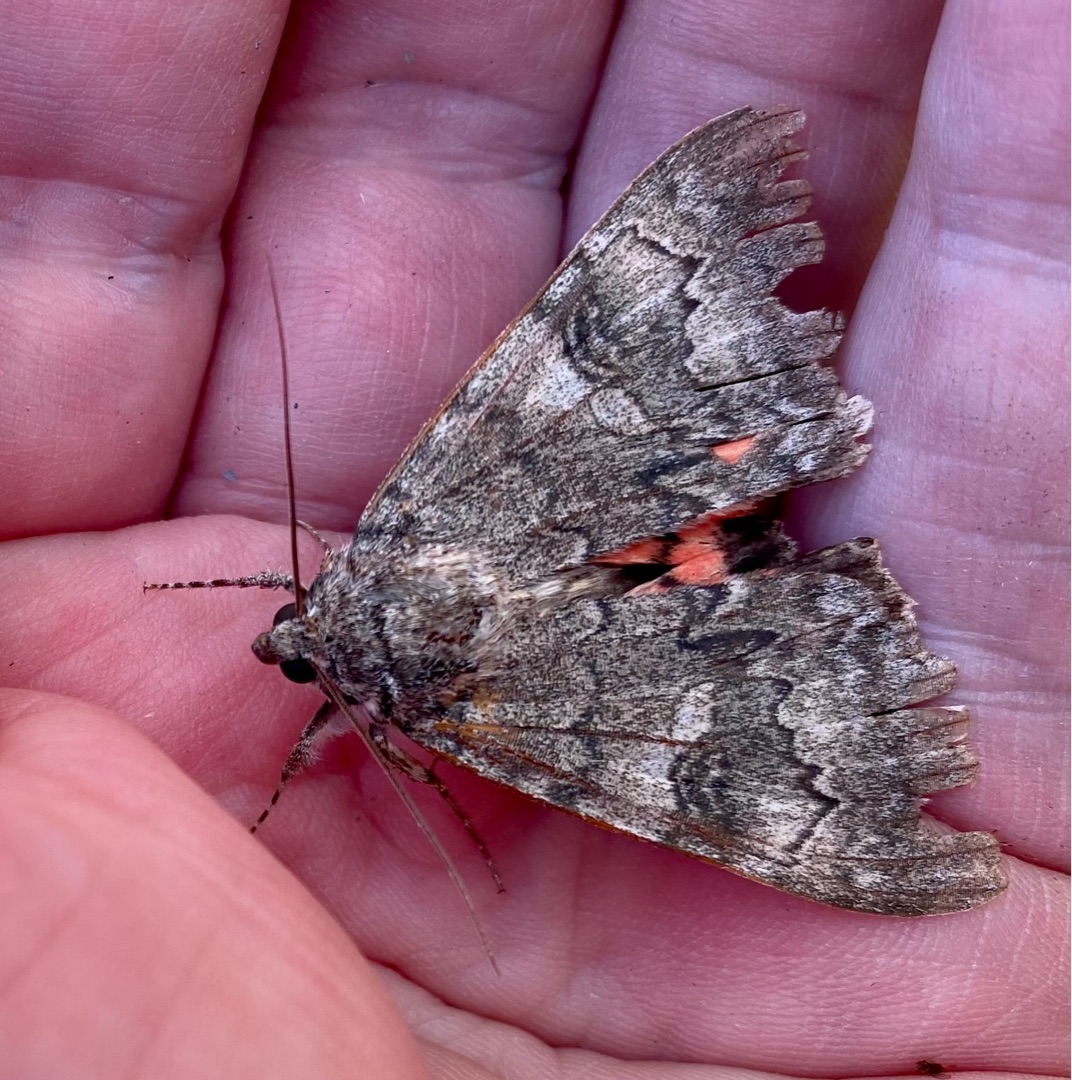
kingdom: Animalia
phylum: Arthropoda
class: Insecta
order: Lepidoptera
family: Erebidae
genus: Catocala
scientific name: Catocala nupta
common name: Rødt ordensbånd
